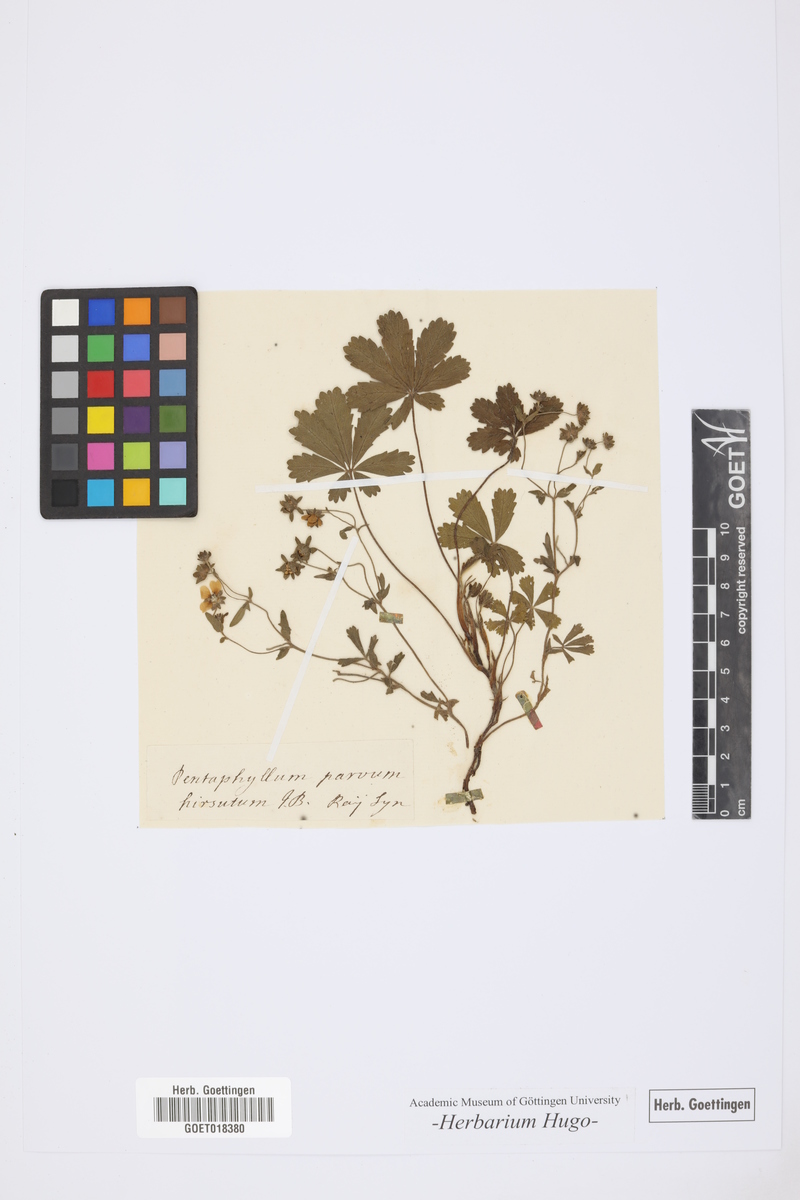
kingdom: Animalia
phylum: Cnidaria
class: Anthozoa
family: Pentaphyllidae
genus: Pentaphyllum
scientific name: Pentaphyllum
